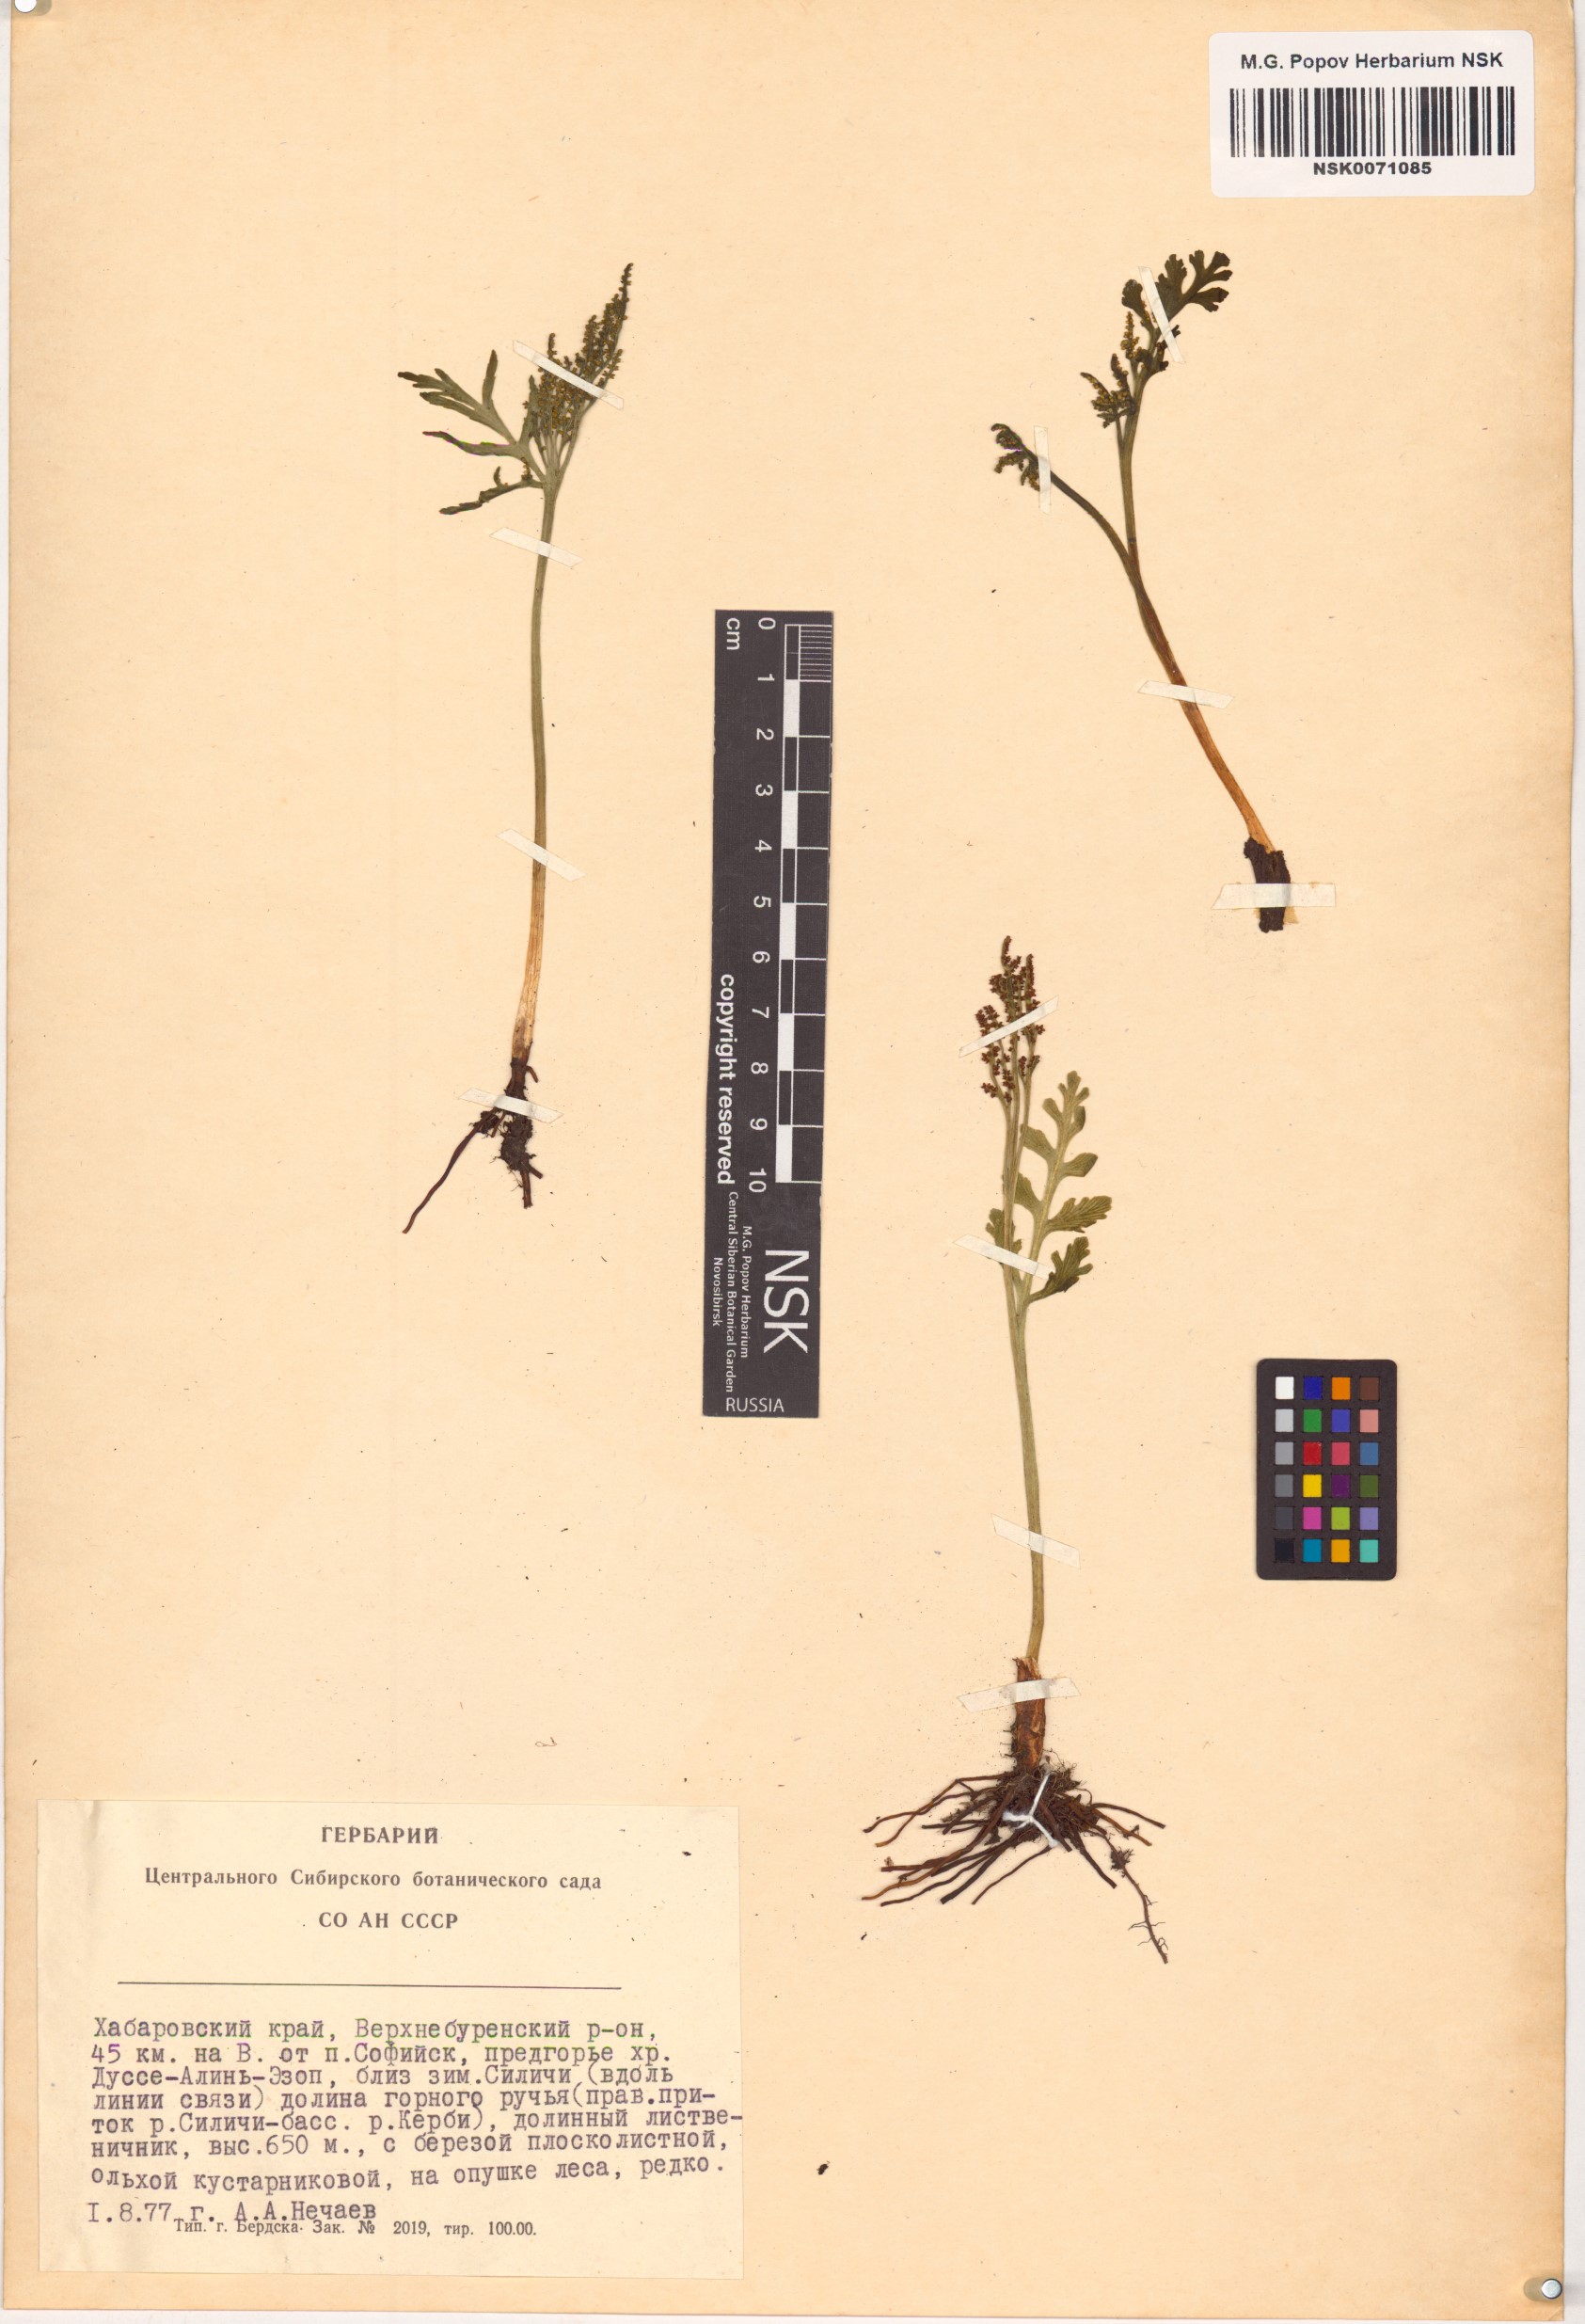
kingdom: Plantae
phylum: Tracheophyta
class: Polypodiopsida
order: Ophioglossales
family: Ophioglossaceae
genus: Botrychium
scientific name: Botrychium lanceolatum
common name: Lance-leaved moonwort
